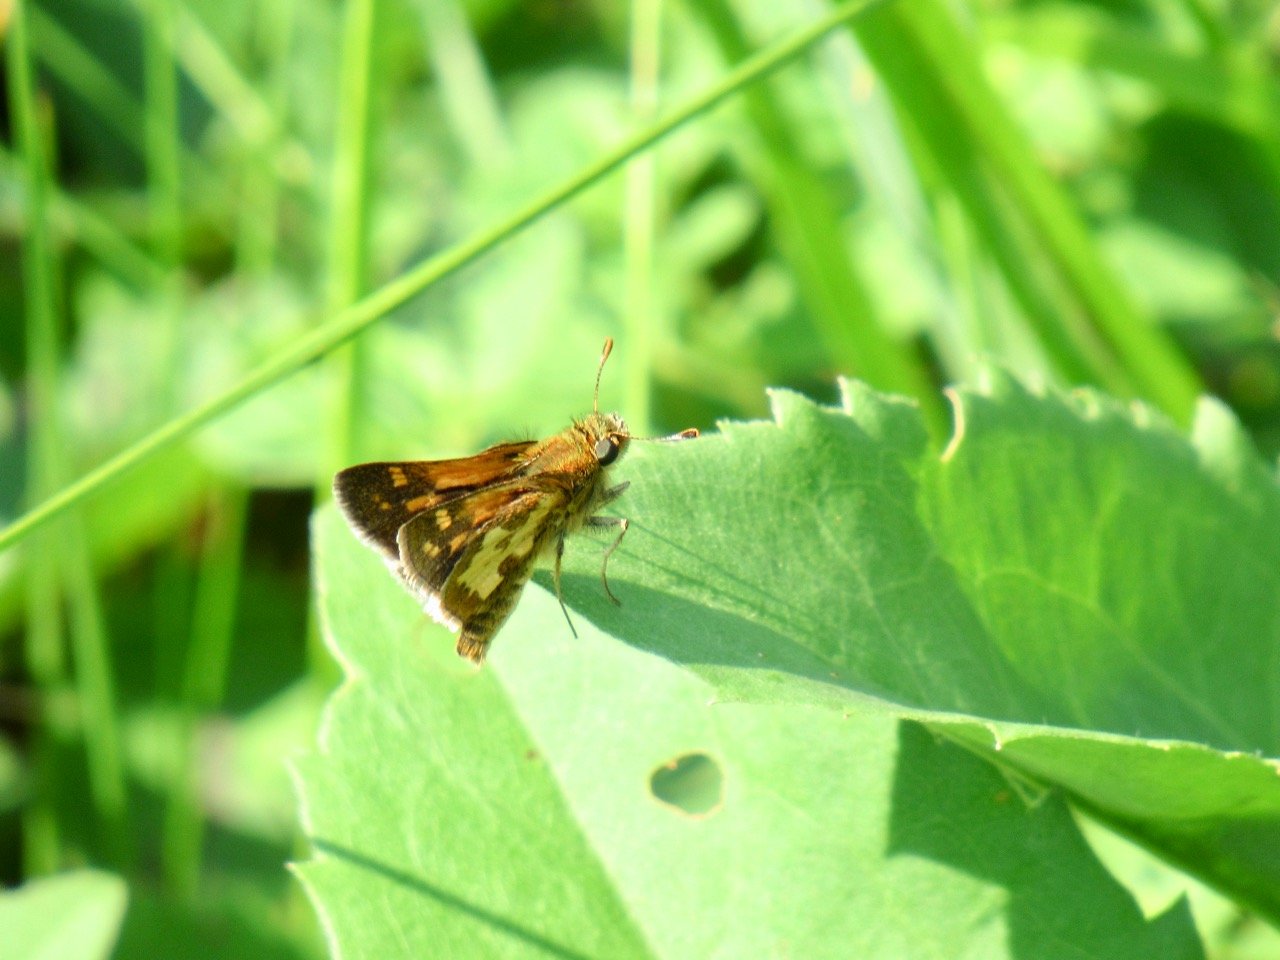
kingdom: Animalia
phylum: Arthropoda
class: Insecta
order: Lepidoptera
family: Hesperiidae
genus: Polites
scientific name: Polites coras
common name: Peck's Skipper
